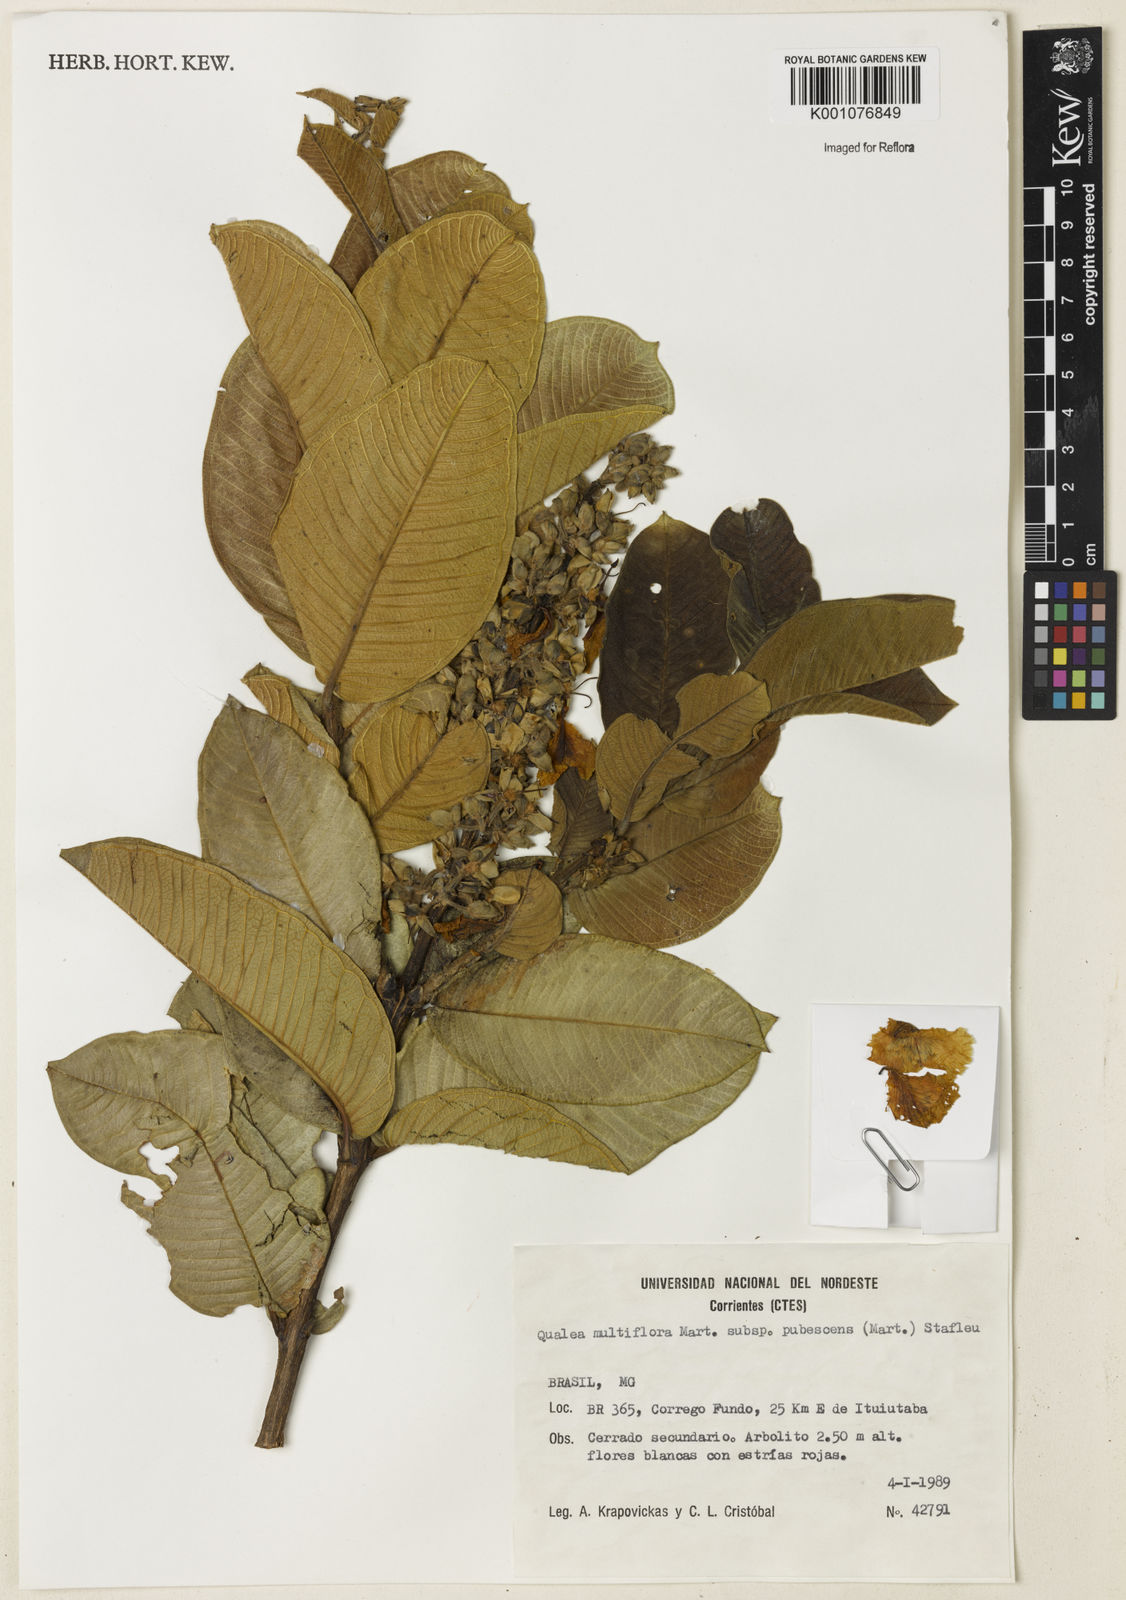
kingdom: Plantae
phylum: Tracheophyta
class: Magnoliopsida
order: Myrtales
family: Vochysiaceae
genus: Qualea
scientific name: Qualea multiflora
